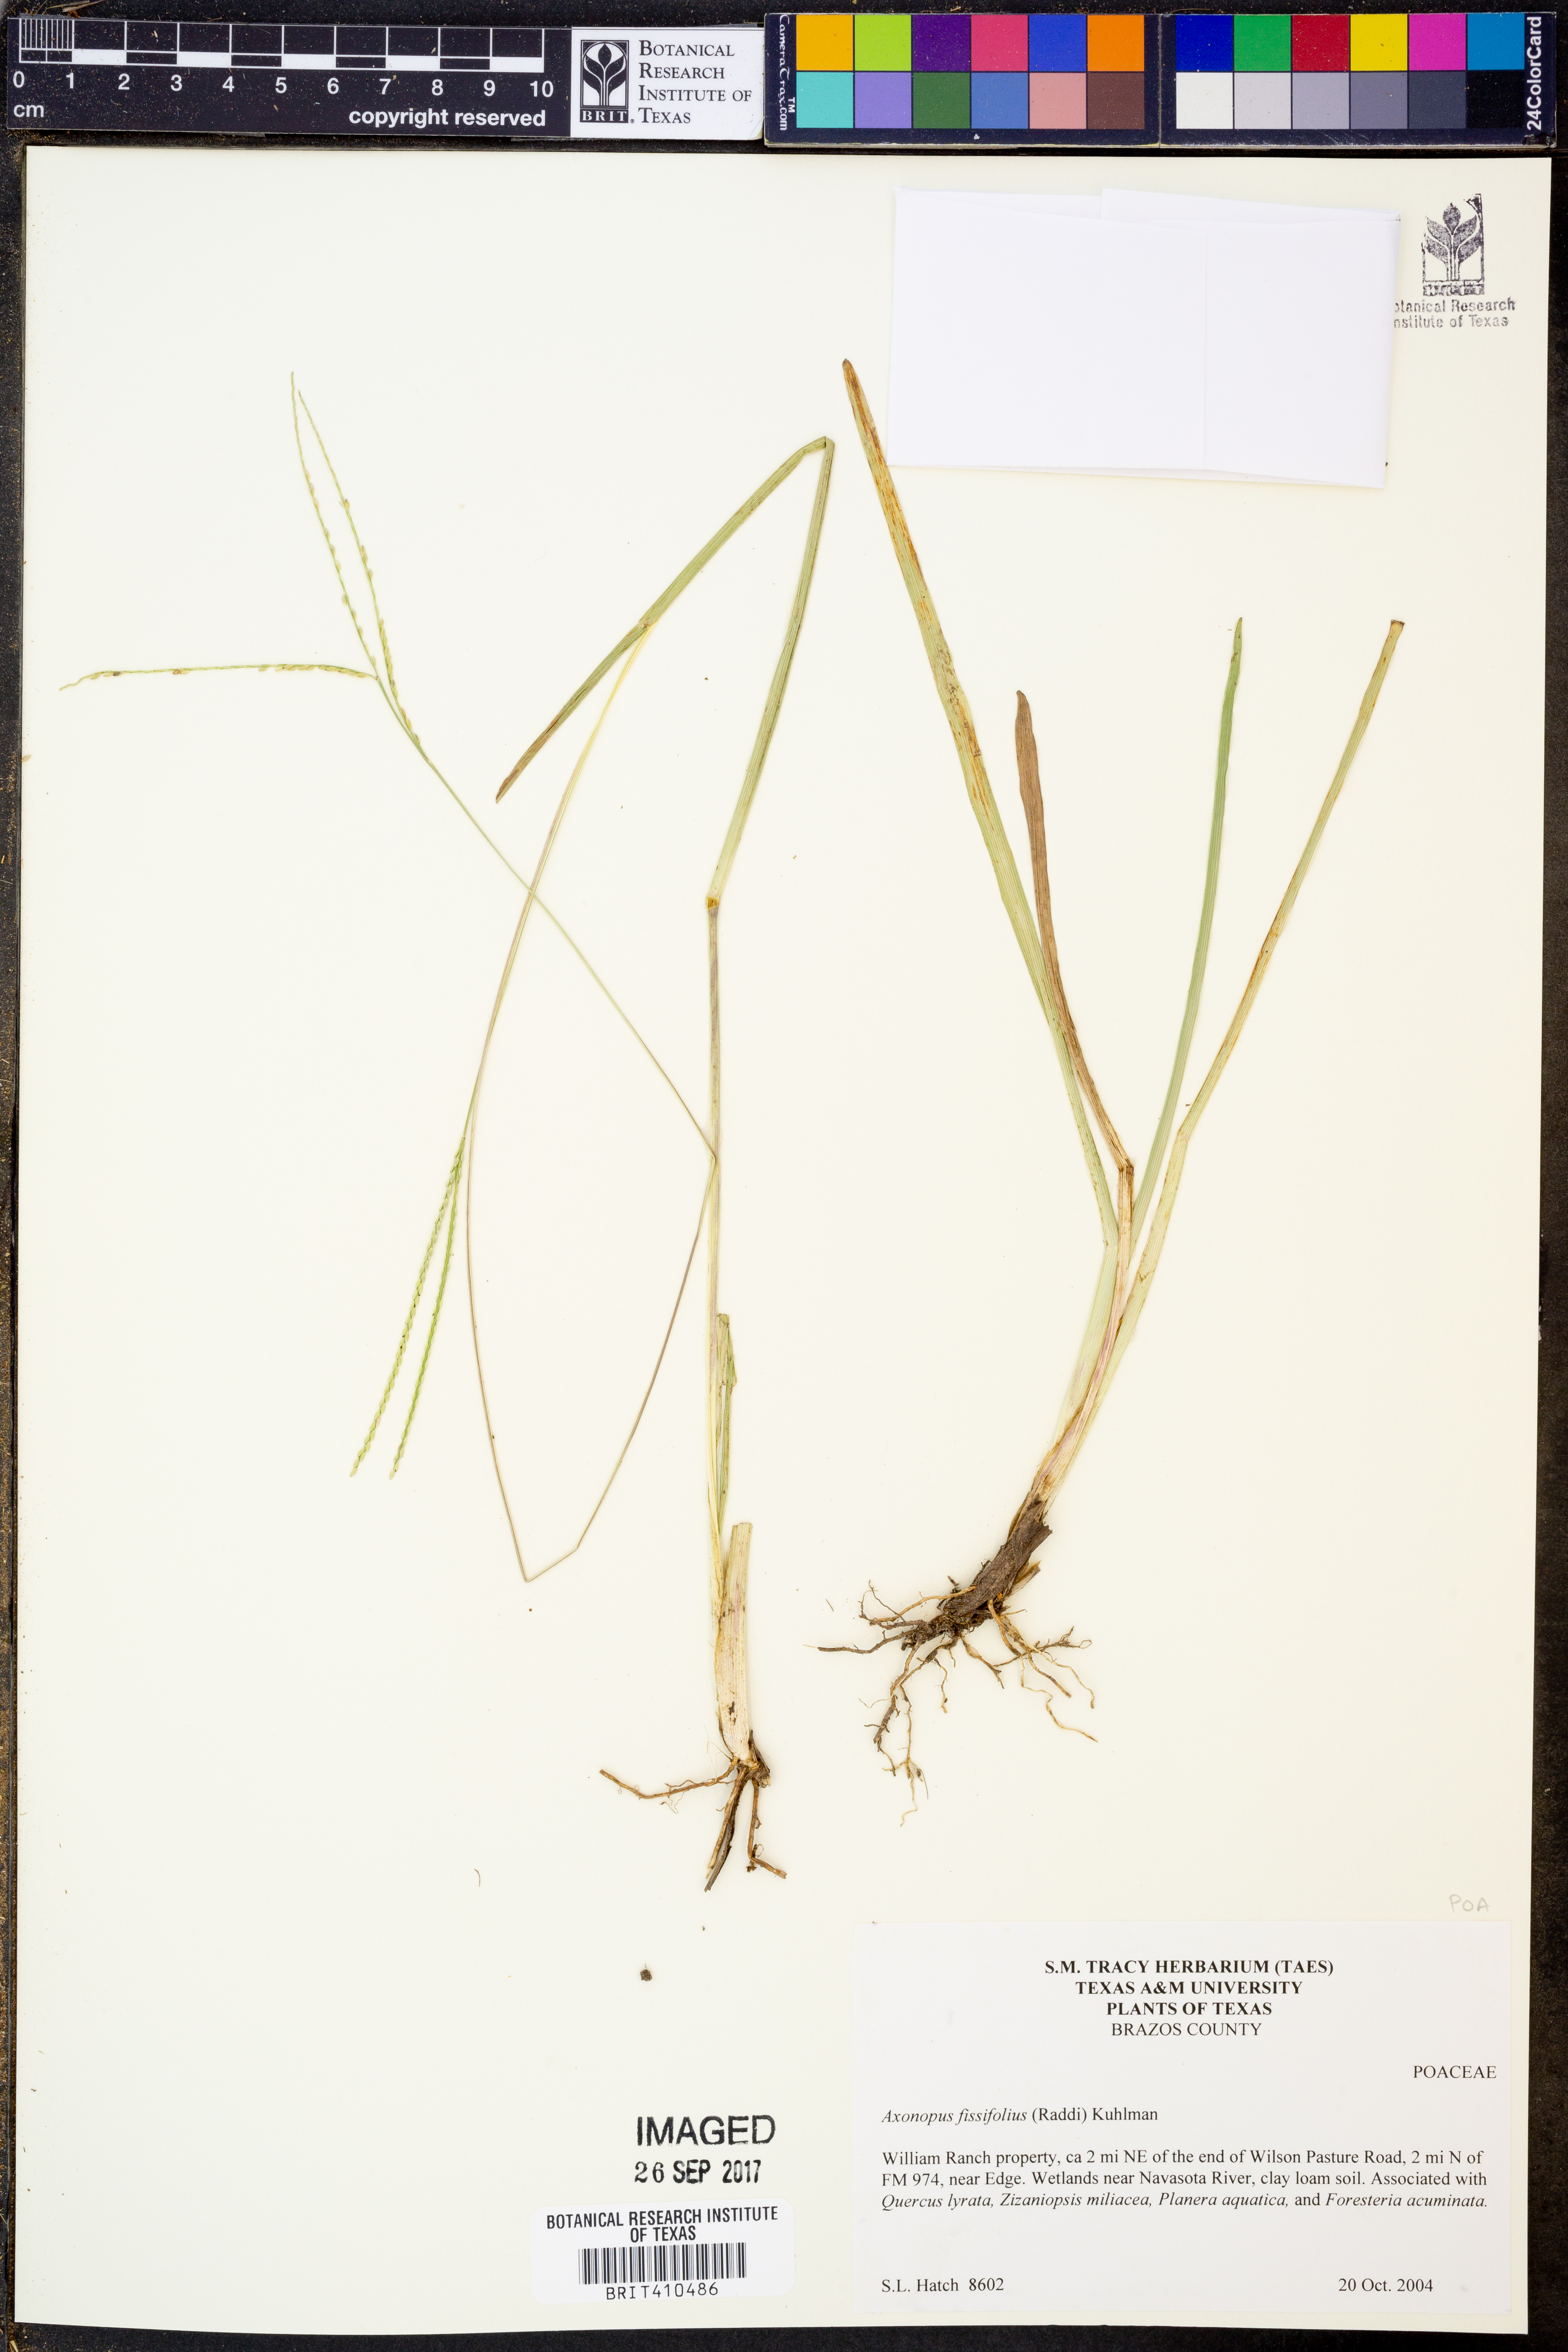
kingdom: Plantae
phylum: Tracheophyta
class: Liliopsida
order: Poales
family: Poaceae
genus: Axonopus
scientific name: Axonopus fissifolius
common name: Common carpetgrass
